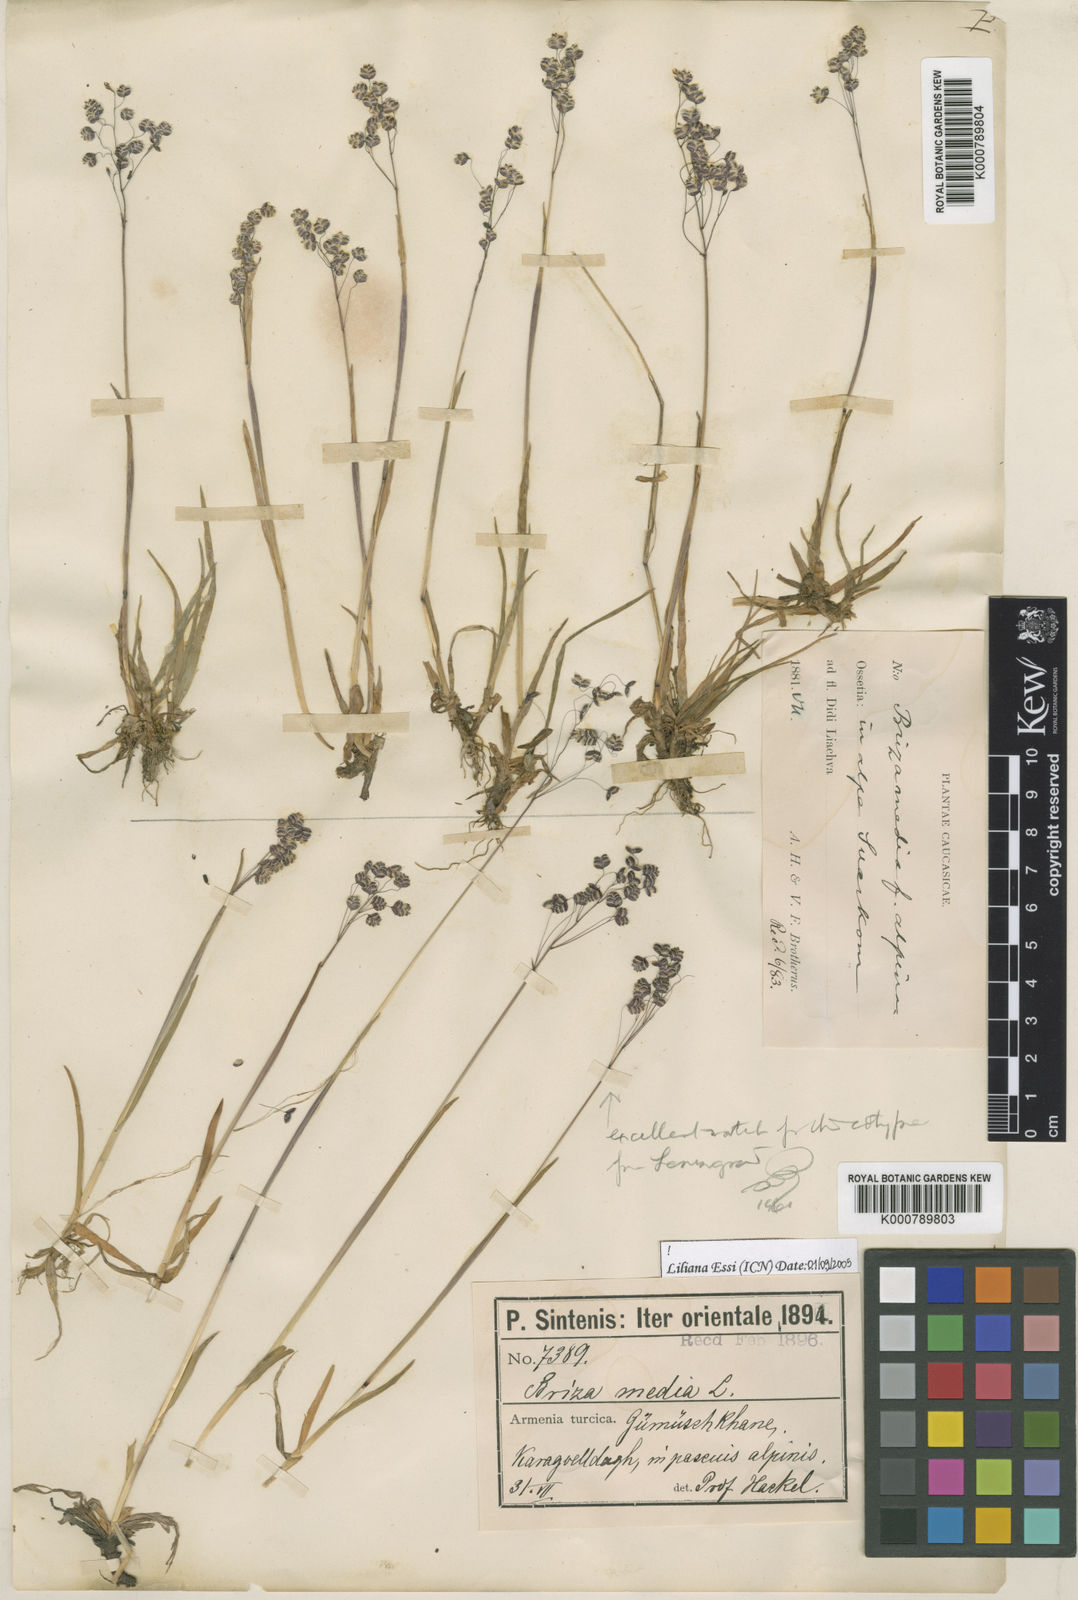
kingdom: Plantae
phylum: Tracheophyta
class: Liliopsida
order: Poales
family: Poaceae
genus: Briza
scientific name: Briza marcowiczii
